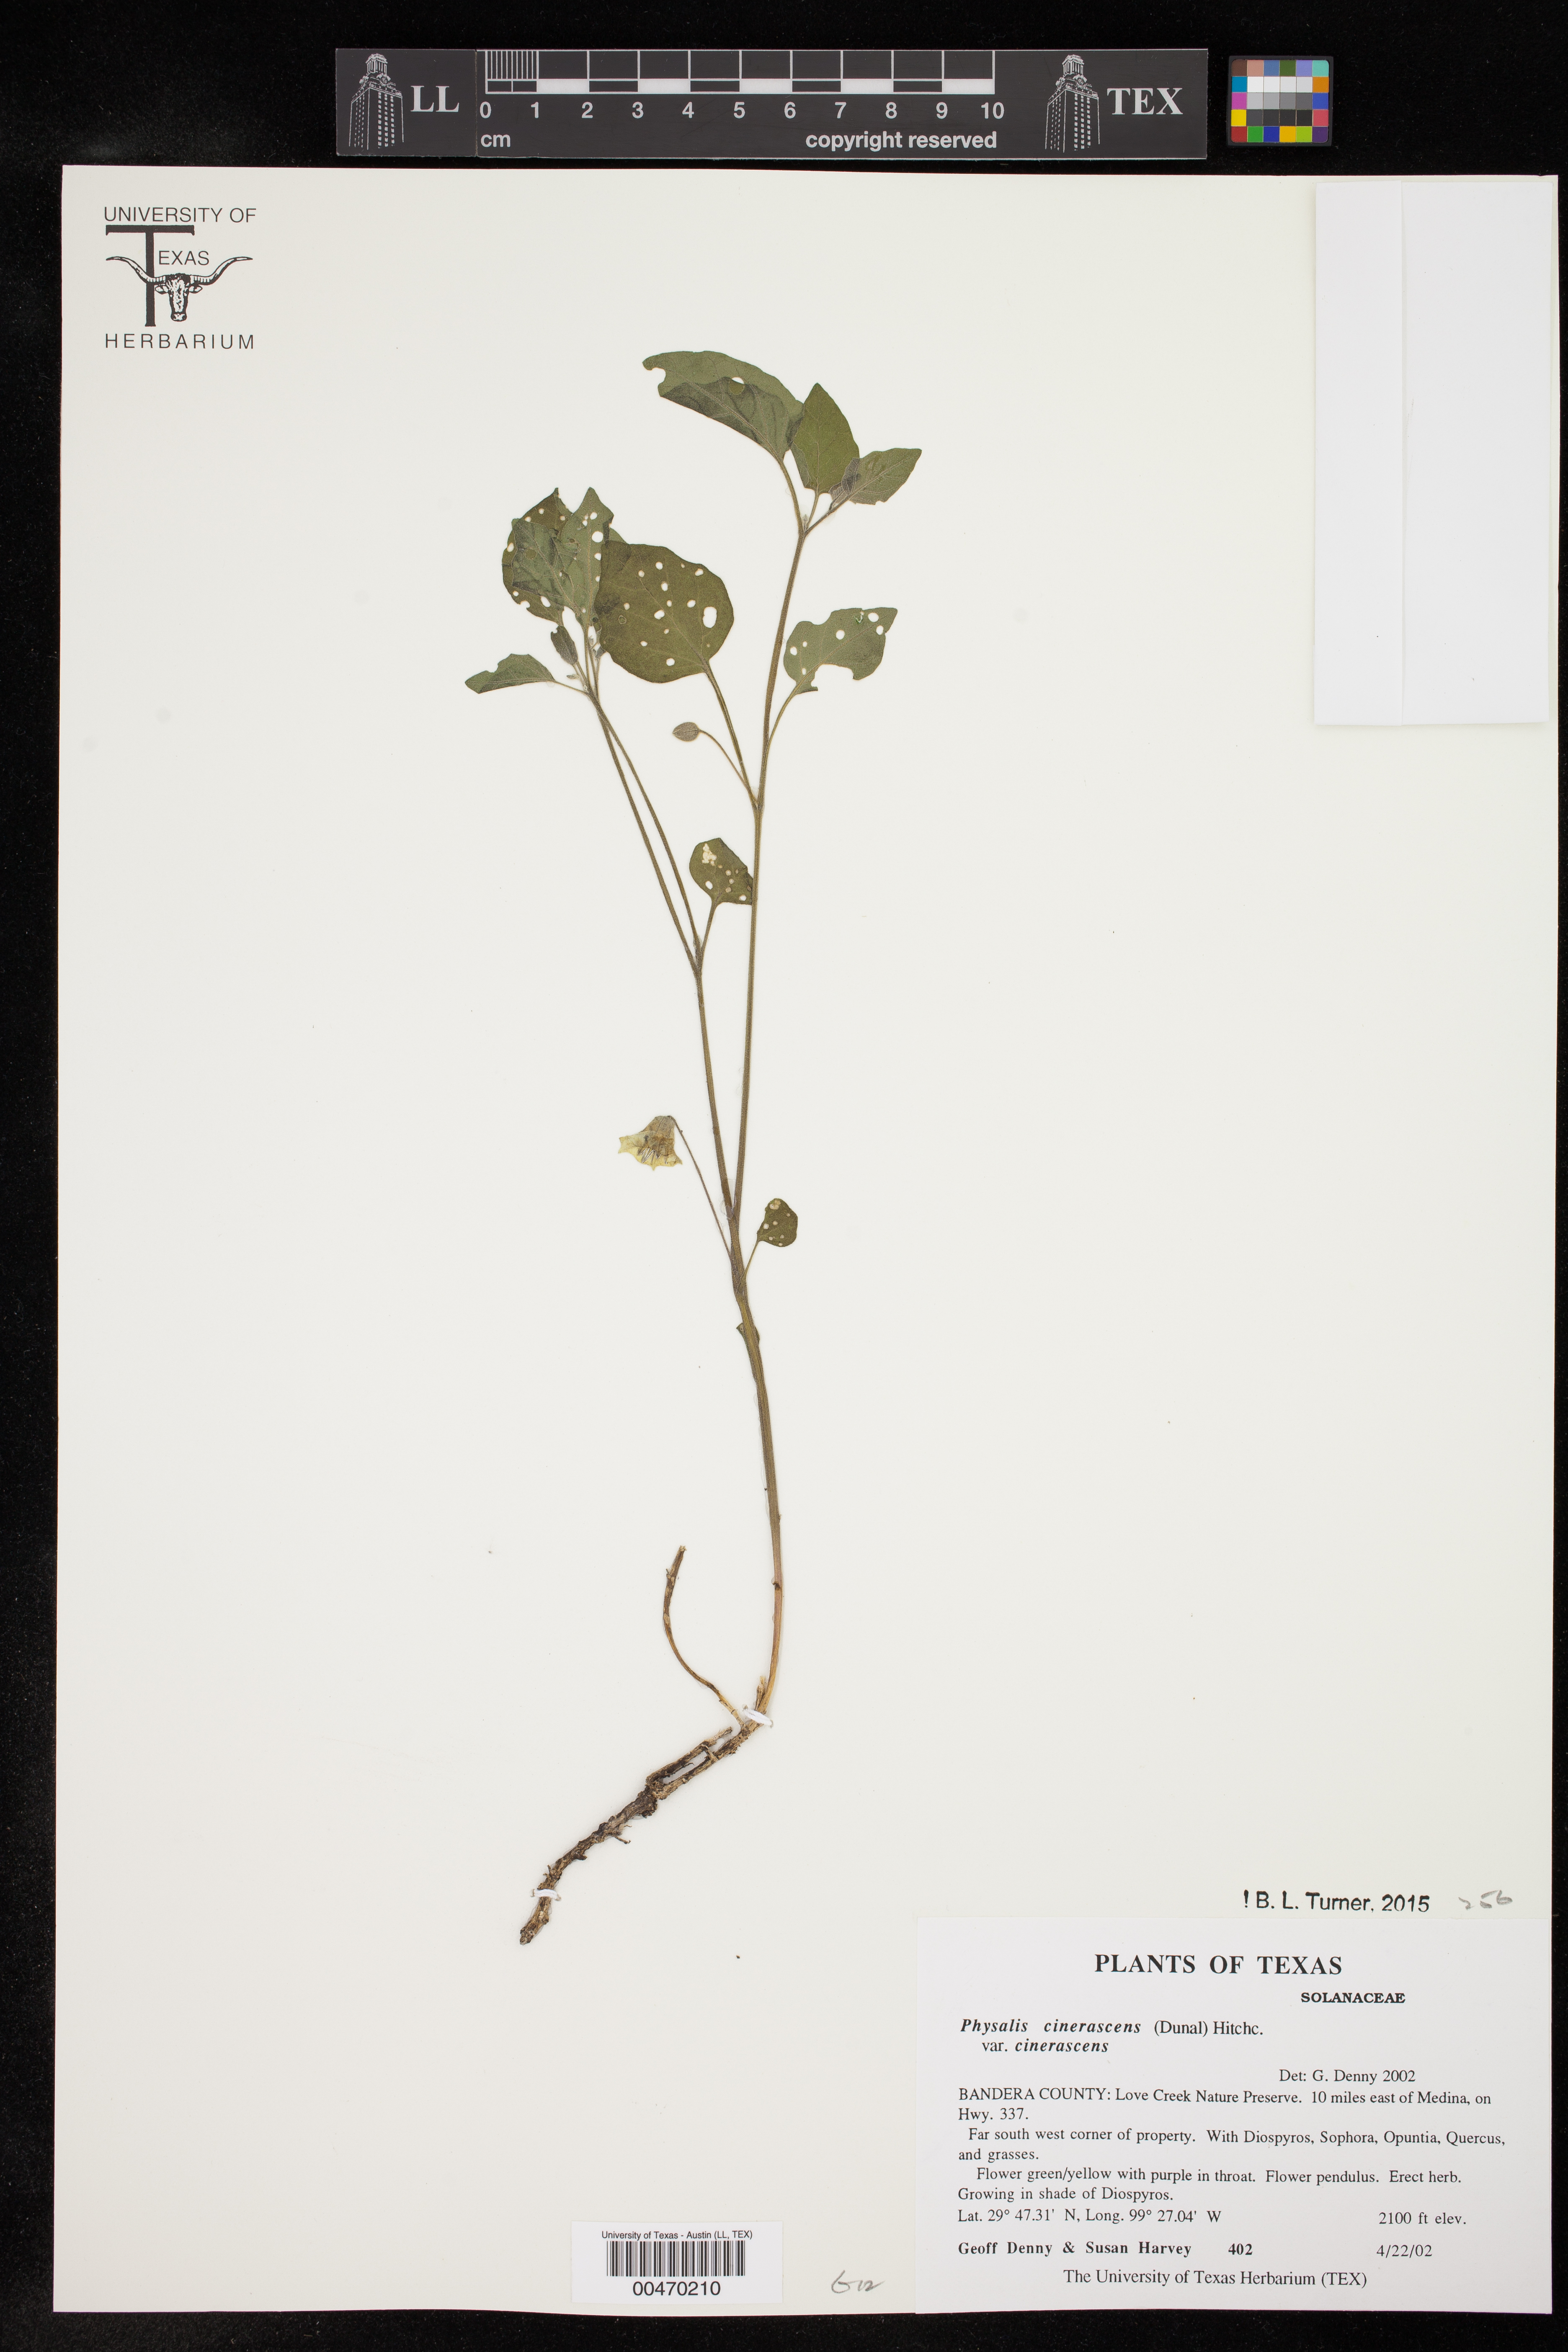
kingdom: Plantae
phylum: Tracheophyta
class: Magnoliopsida
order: Solanales
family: Solanaceae
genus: Physalis
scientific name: Physalis cinerascens
